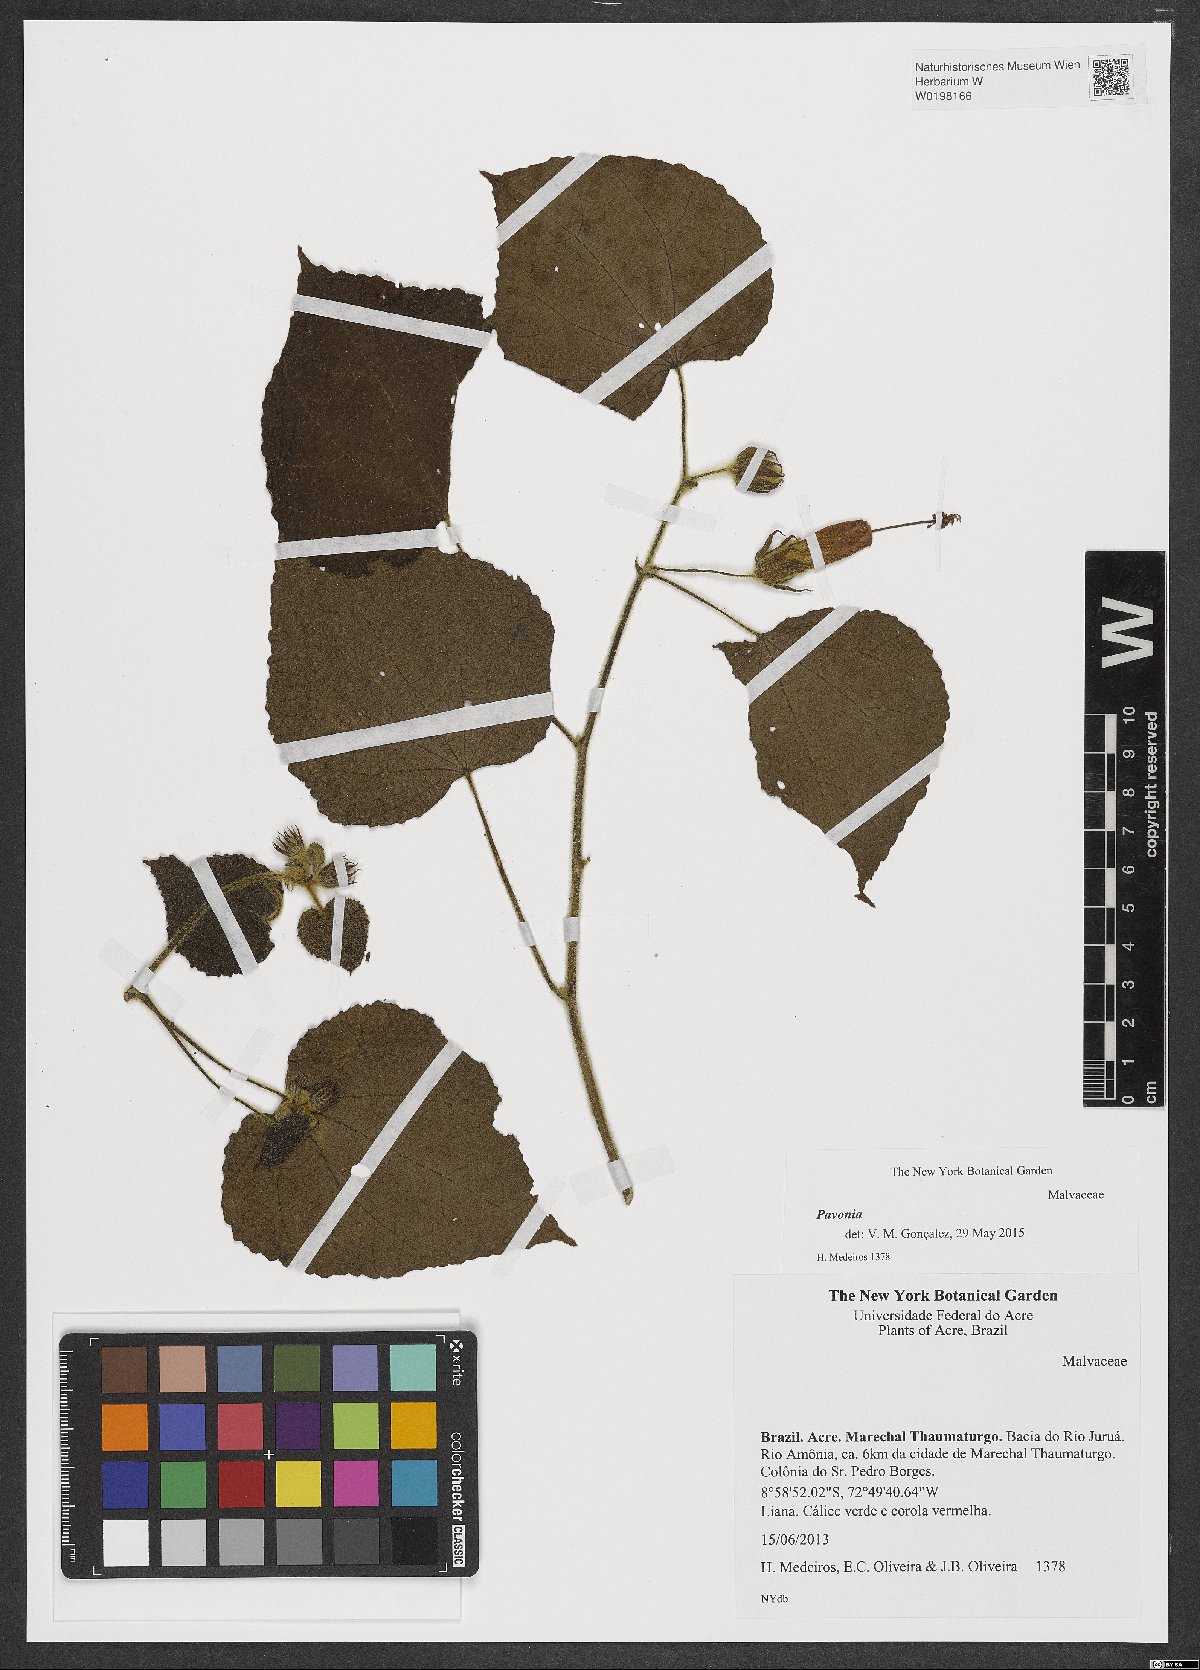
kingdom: Plantae
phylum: Tracheophyta
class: Magnoliopsida
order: Malvales
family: Malvaceae
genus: Pavonia
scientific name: Pavonia
